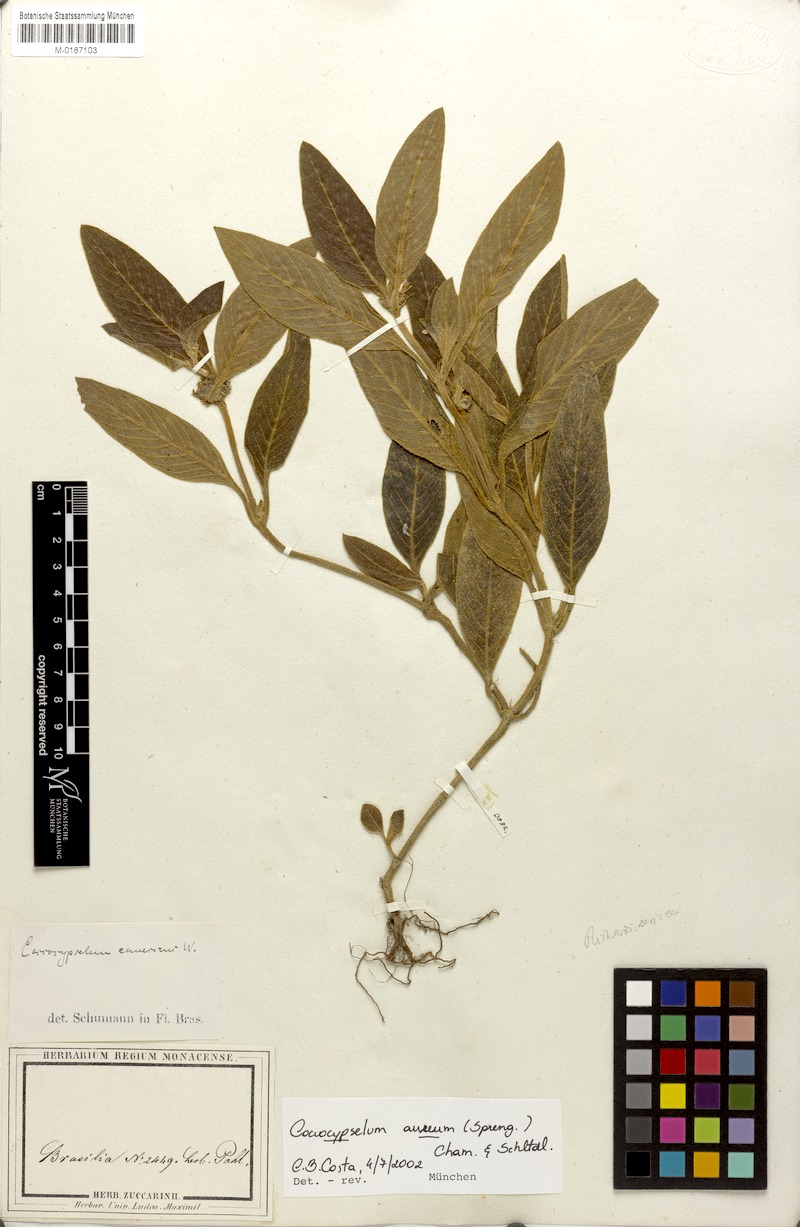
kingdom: Plantae
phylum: Tracheophyta
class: Magnoliopsida
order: Gentianales
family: Rubiaceae
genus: Coccocypselum
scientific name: Coccocypselum aureum
